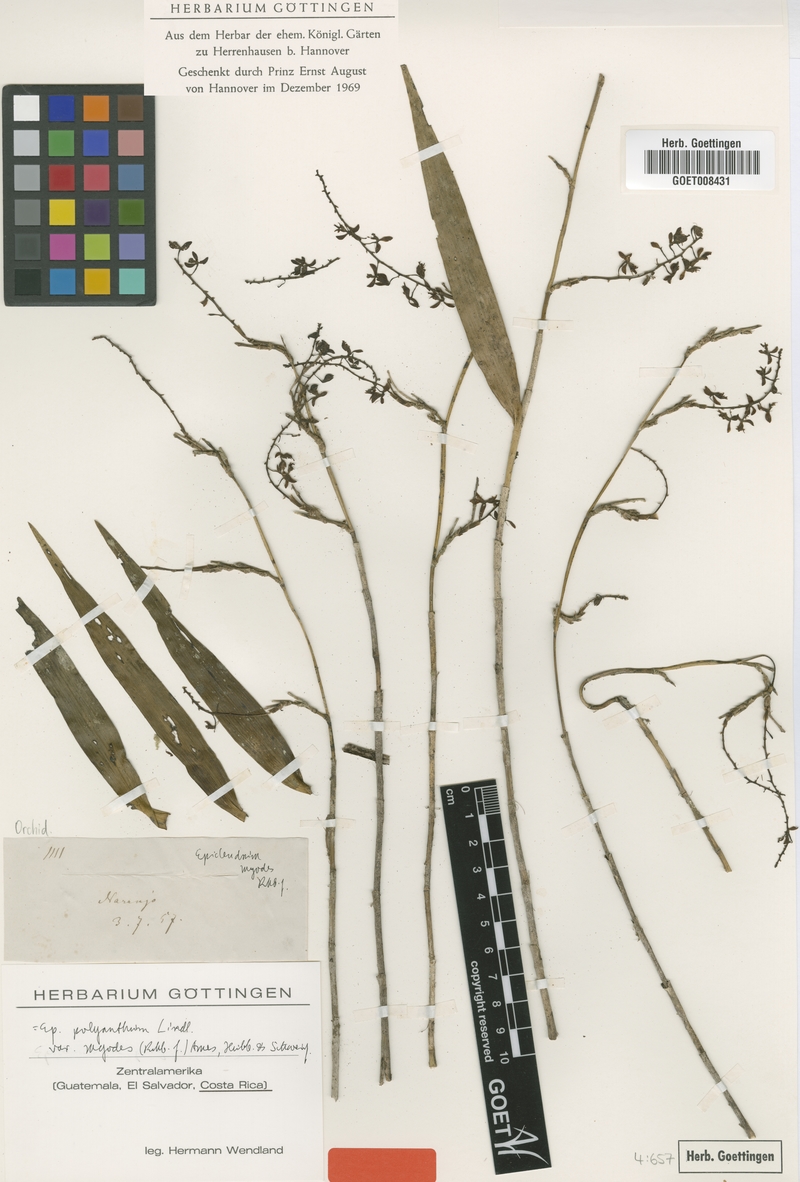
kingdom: Plantae
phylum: Tracheophyta
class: Liliopsida
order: Asparagales
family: Orchidaceae
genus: Epidendrum
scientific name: Epidendrum polyanthum
